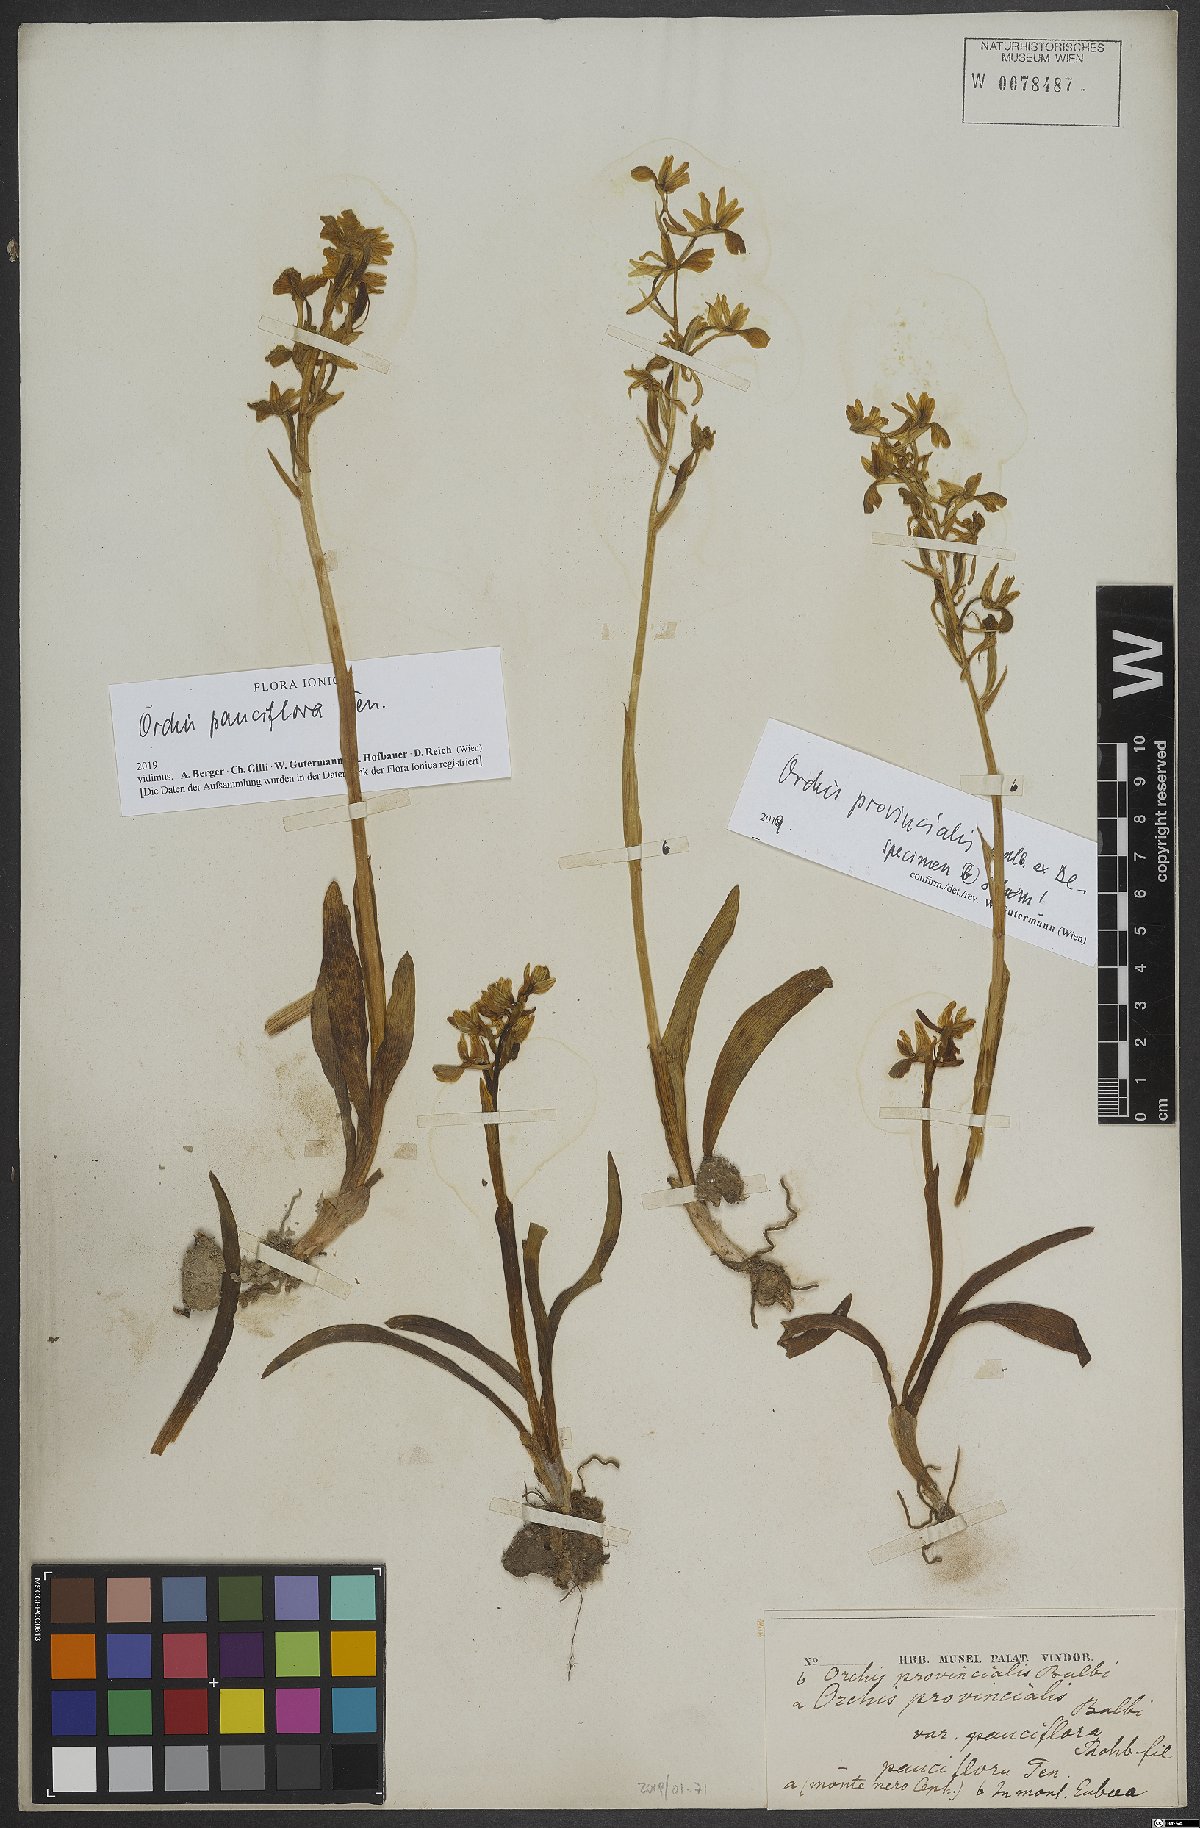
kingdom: Plantae
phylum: Tracheophyta
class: Liliopsida
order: Asparagales
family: Orchidaceae
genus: Orchis
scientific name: Orchis pauciflora
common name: Few-flowered orchid
